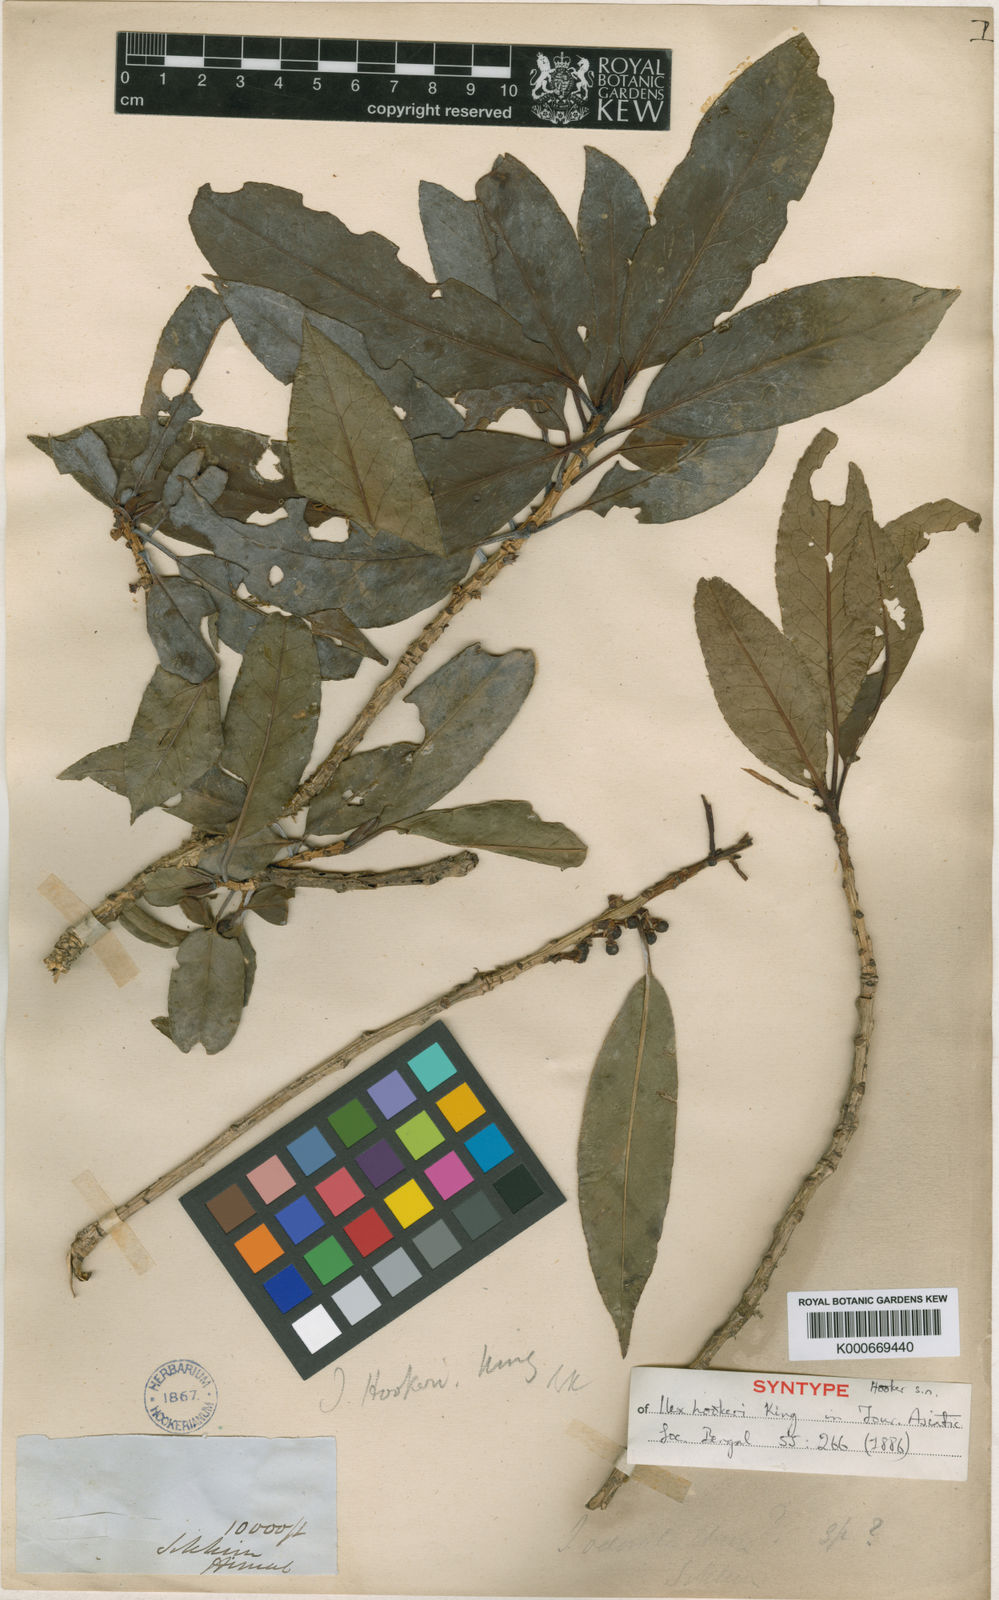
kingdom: Plantae
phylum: Tracheophyta
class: Magnoliopsida
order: Aquifoliales
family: Aquifoliaceae
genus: Ilex
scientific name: Ilex hookeri
